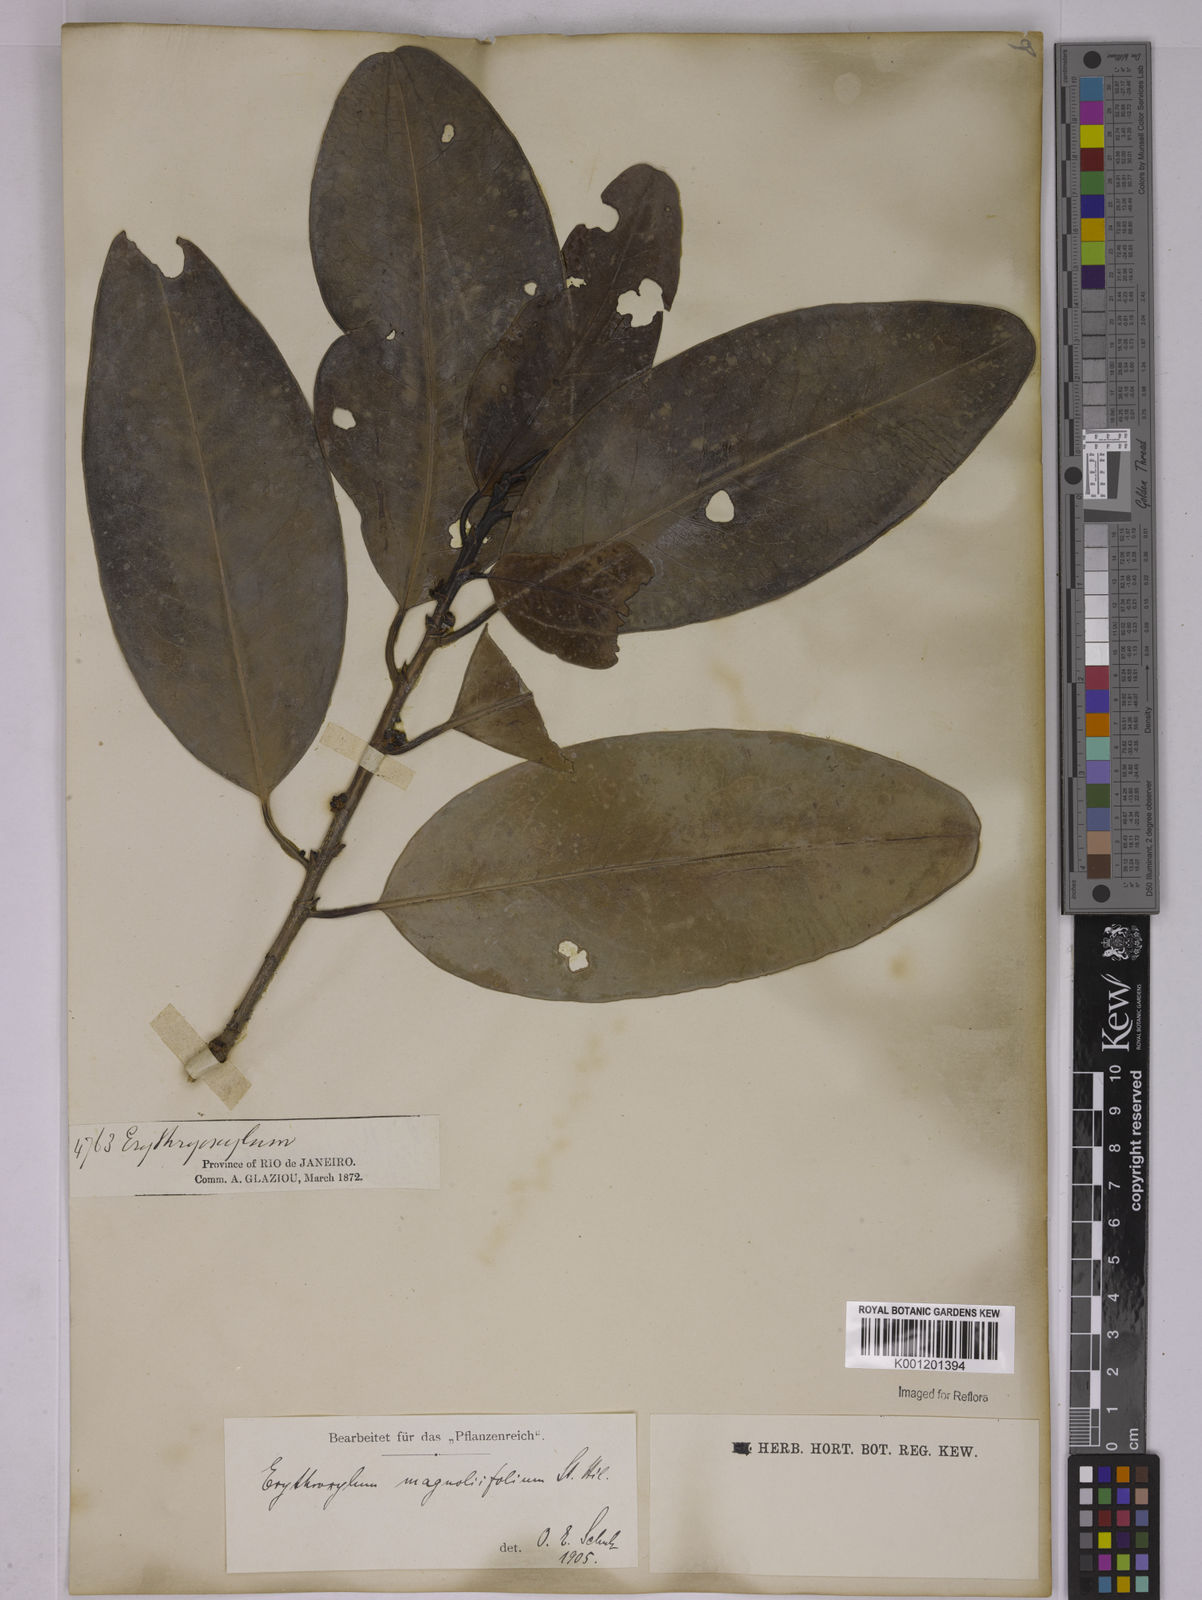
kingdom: Plantae
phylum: Tracheophyta
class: Magnoliopsida
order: Malpighiales
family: Erythroxylaceae
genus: Erythroxylum
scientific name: Erythroxylum magnoliifolium
